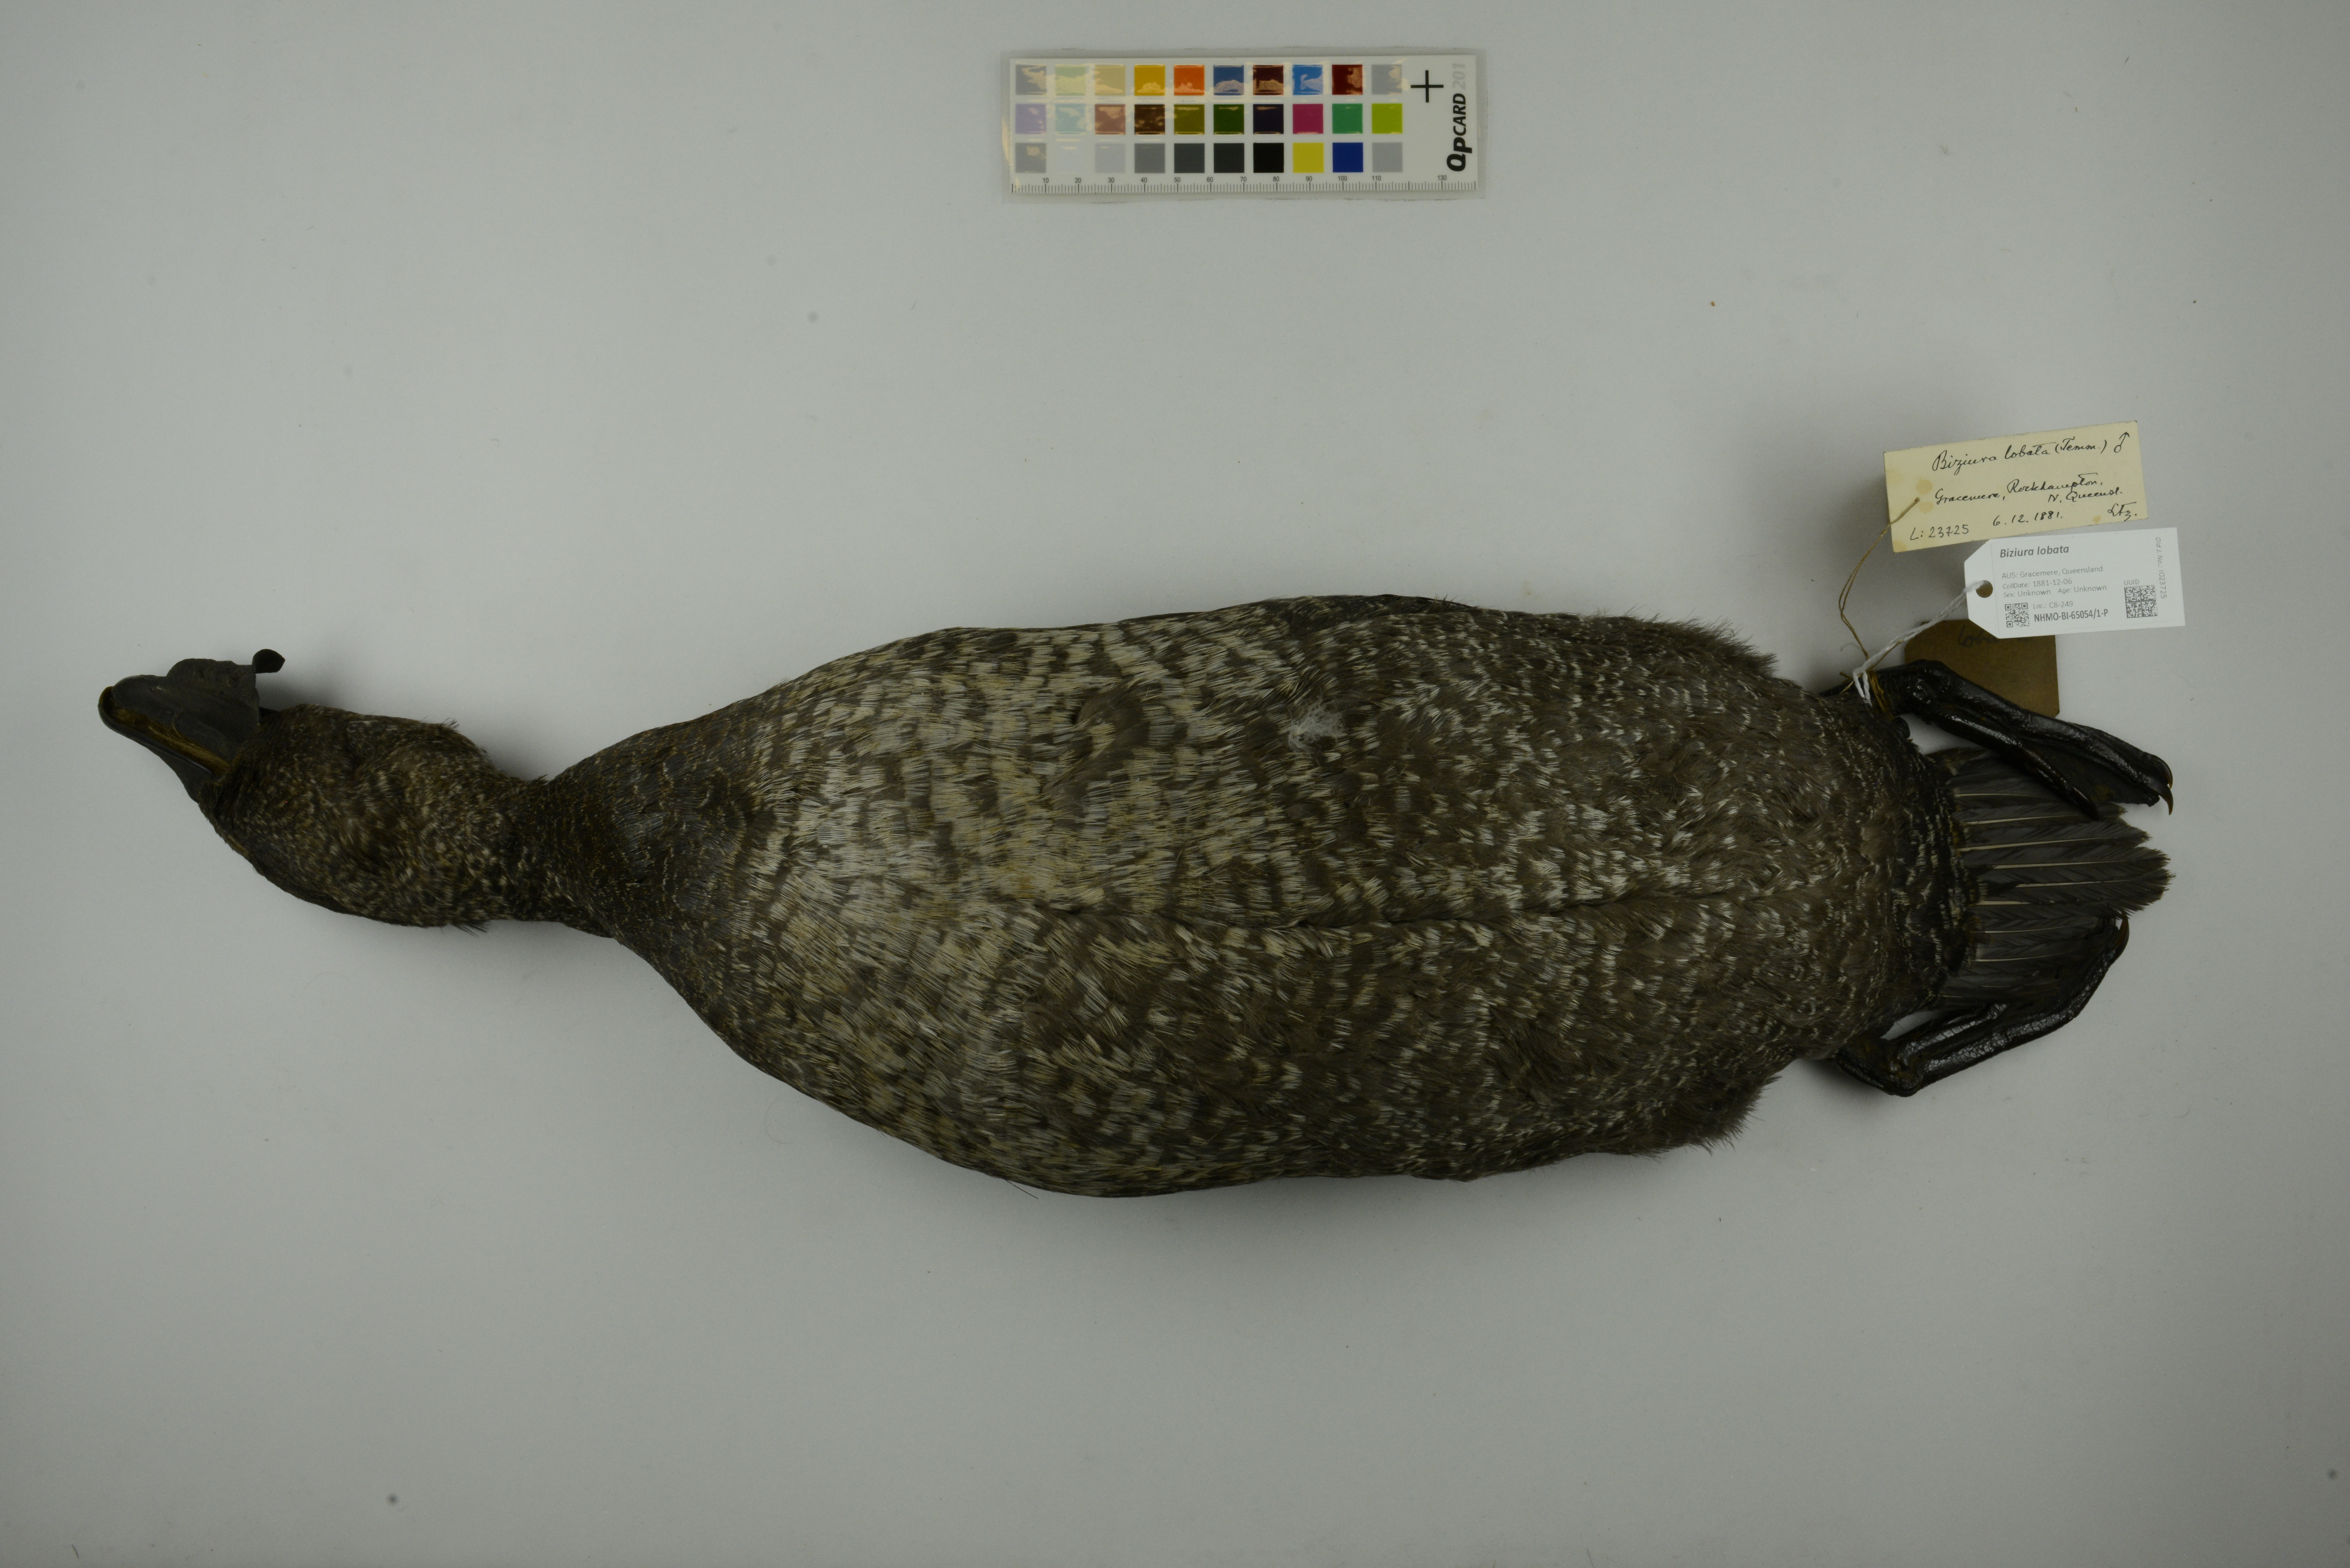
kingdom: Animalia
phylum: Chordata
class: Aves
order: Anseriformes
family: Anatidae
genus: Biziura
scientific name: Biziura lobata
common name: Musk duck
